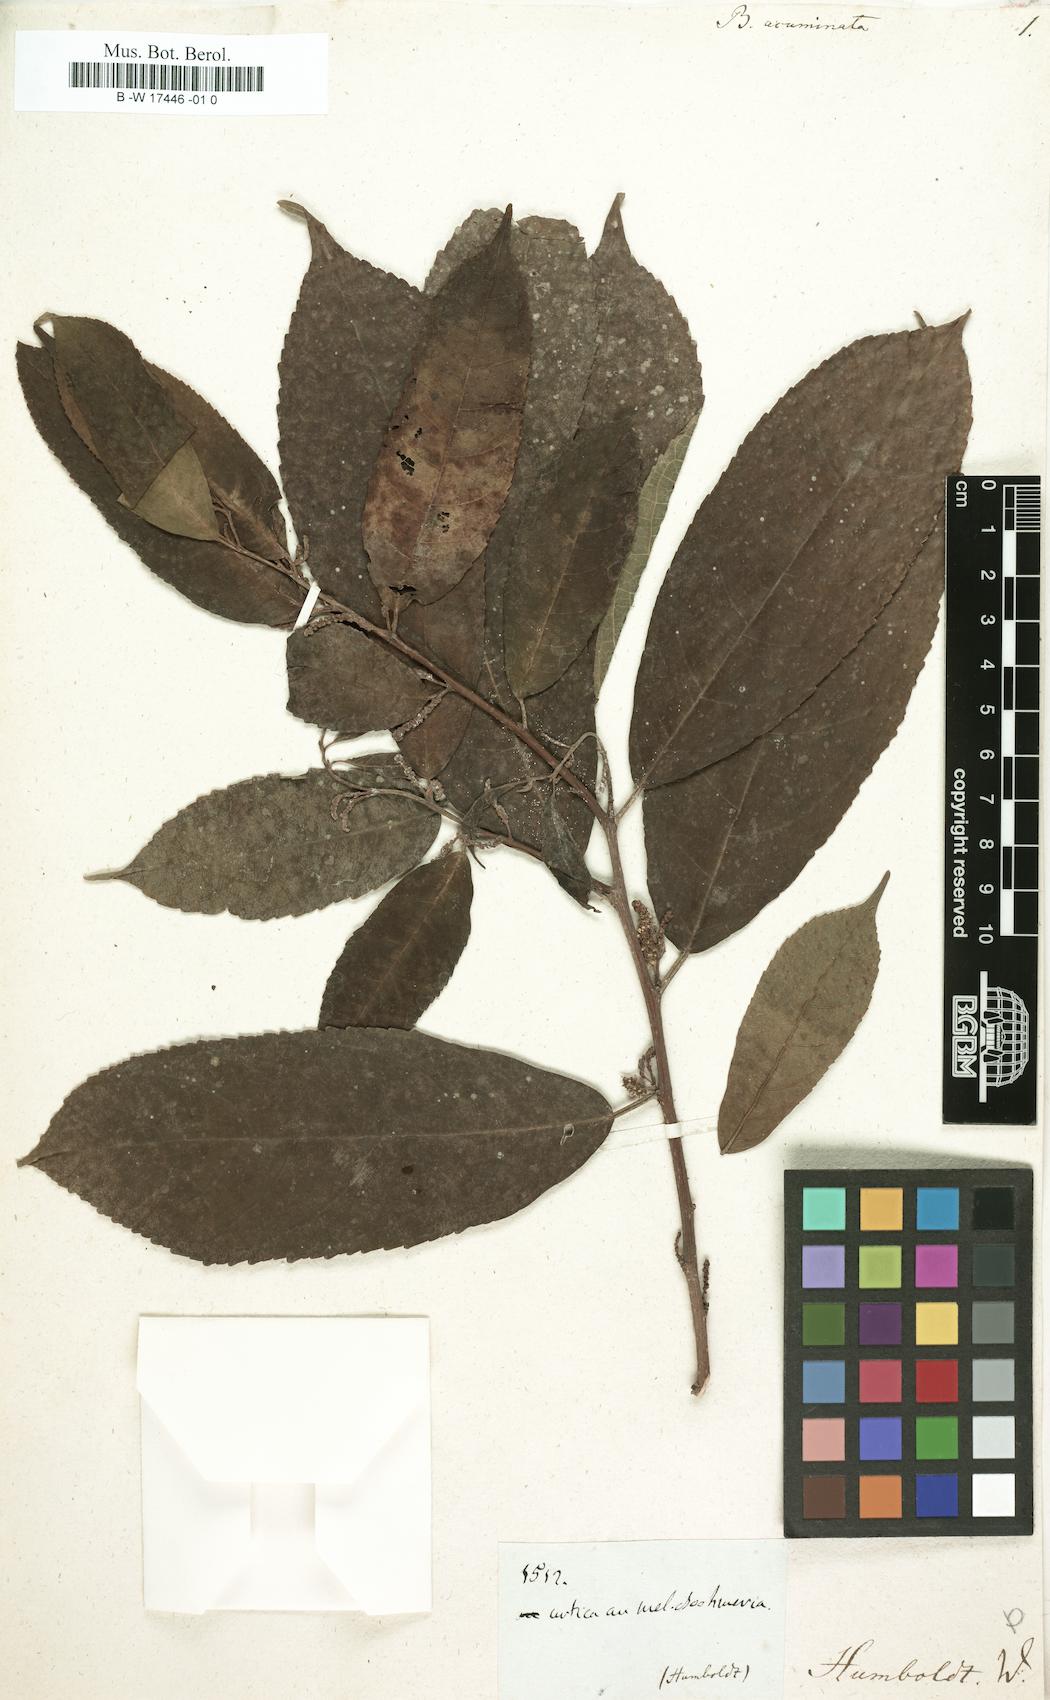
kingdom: Plantae
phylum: Tracheophyta
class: Magnoliopsida
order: Rosales
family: Urticaceae
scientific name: Urticaceae
